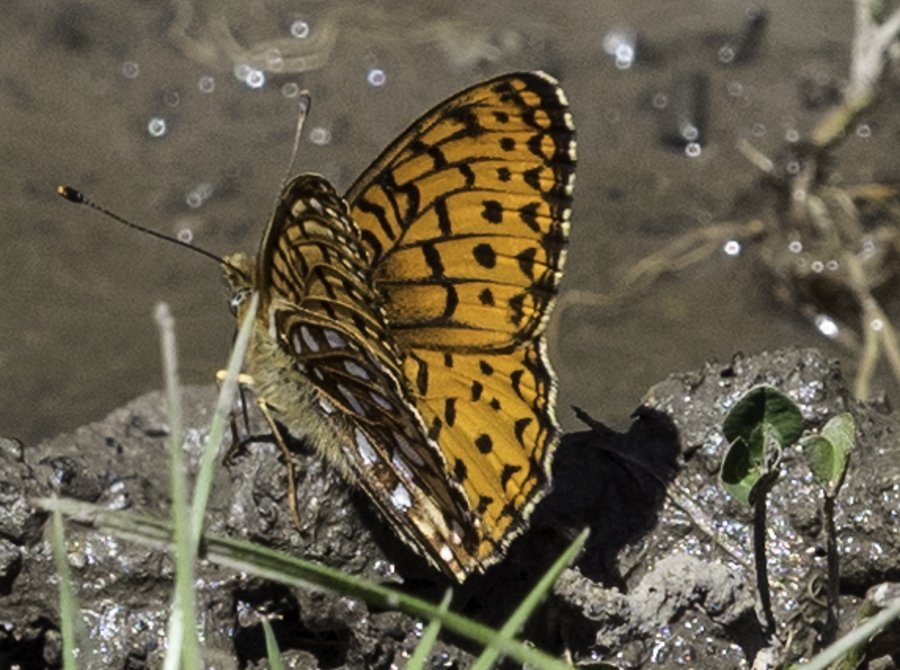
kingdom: Animalia
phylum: Arthropoda
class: Insecta
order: Lepidoptera
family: Nymphalidae
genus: Speyeria
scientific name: Speyeria atlantis
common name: Atlantis Fritillary
